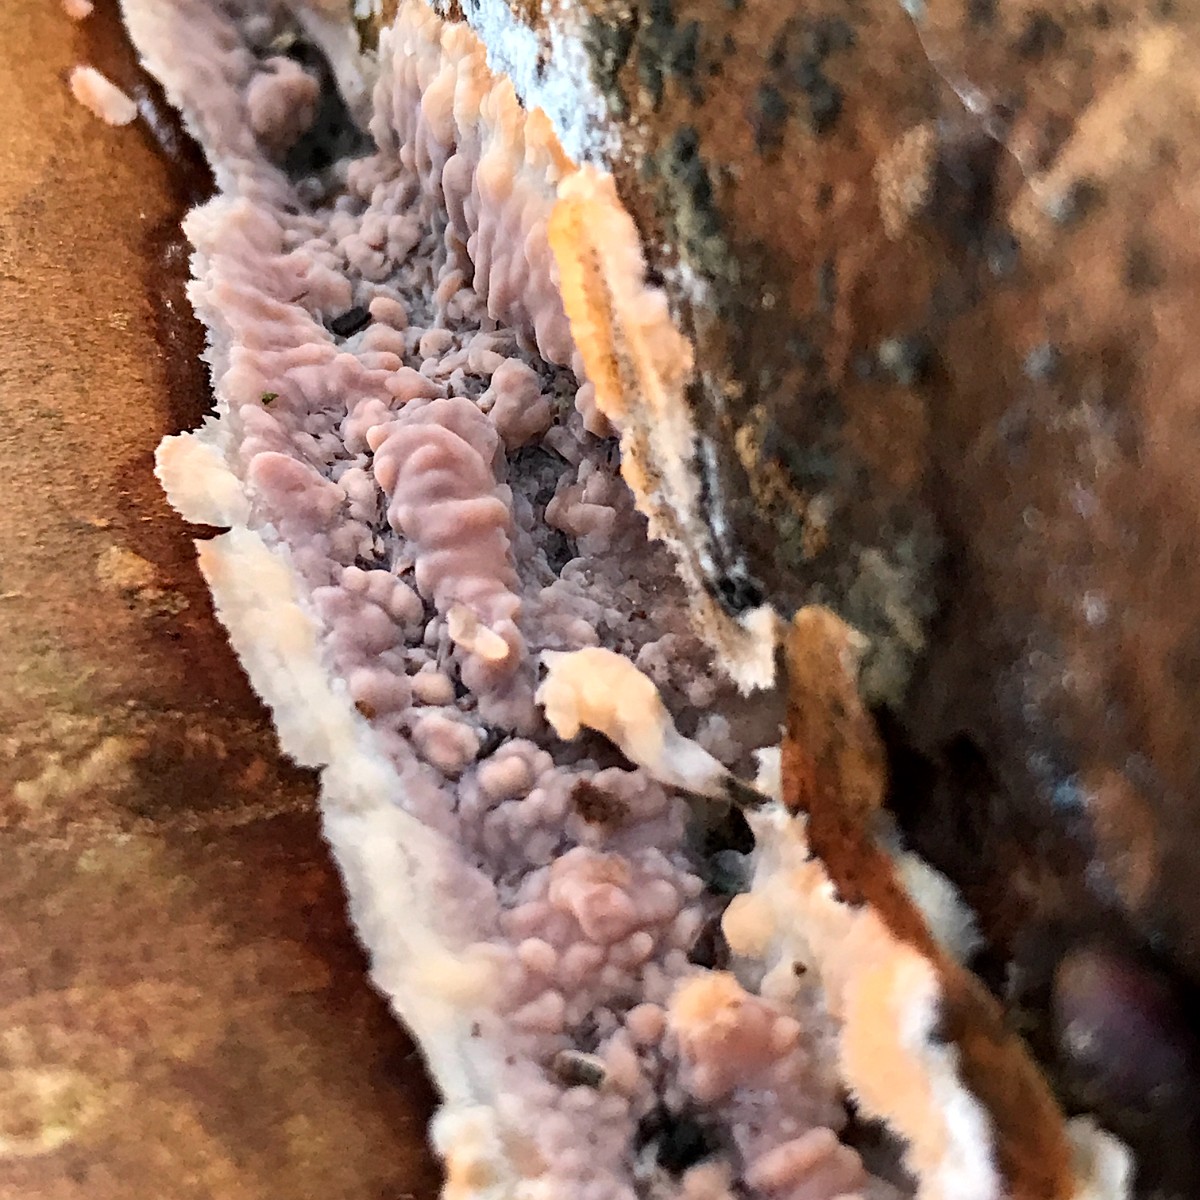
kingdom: Fungi
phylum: Basidiomycota
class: Agaricomycetes
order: Polyporales
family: Meruliaceae
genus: Phlebia
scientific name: Phlebia radiata
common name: stråle-åresvamp
